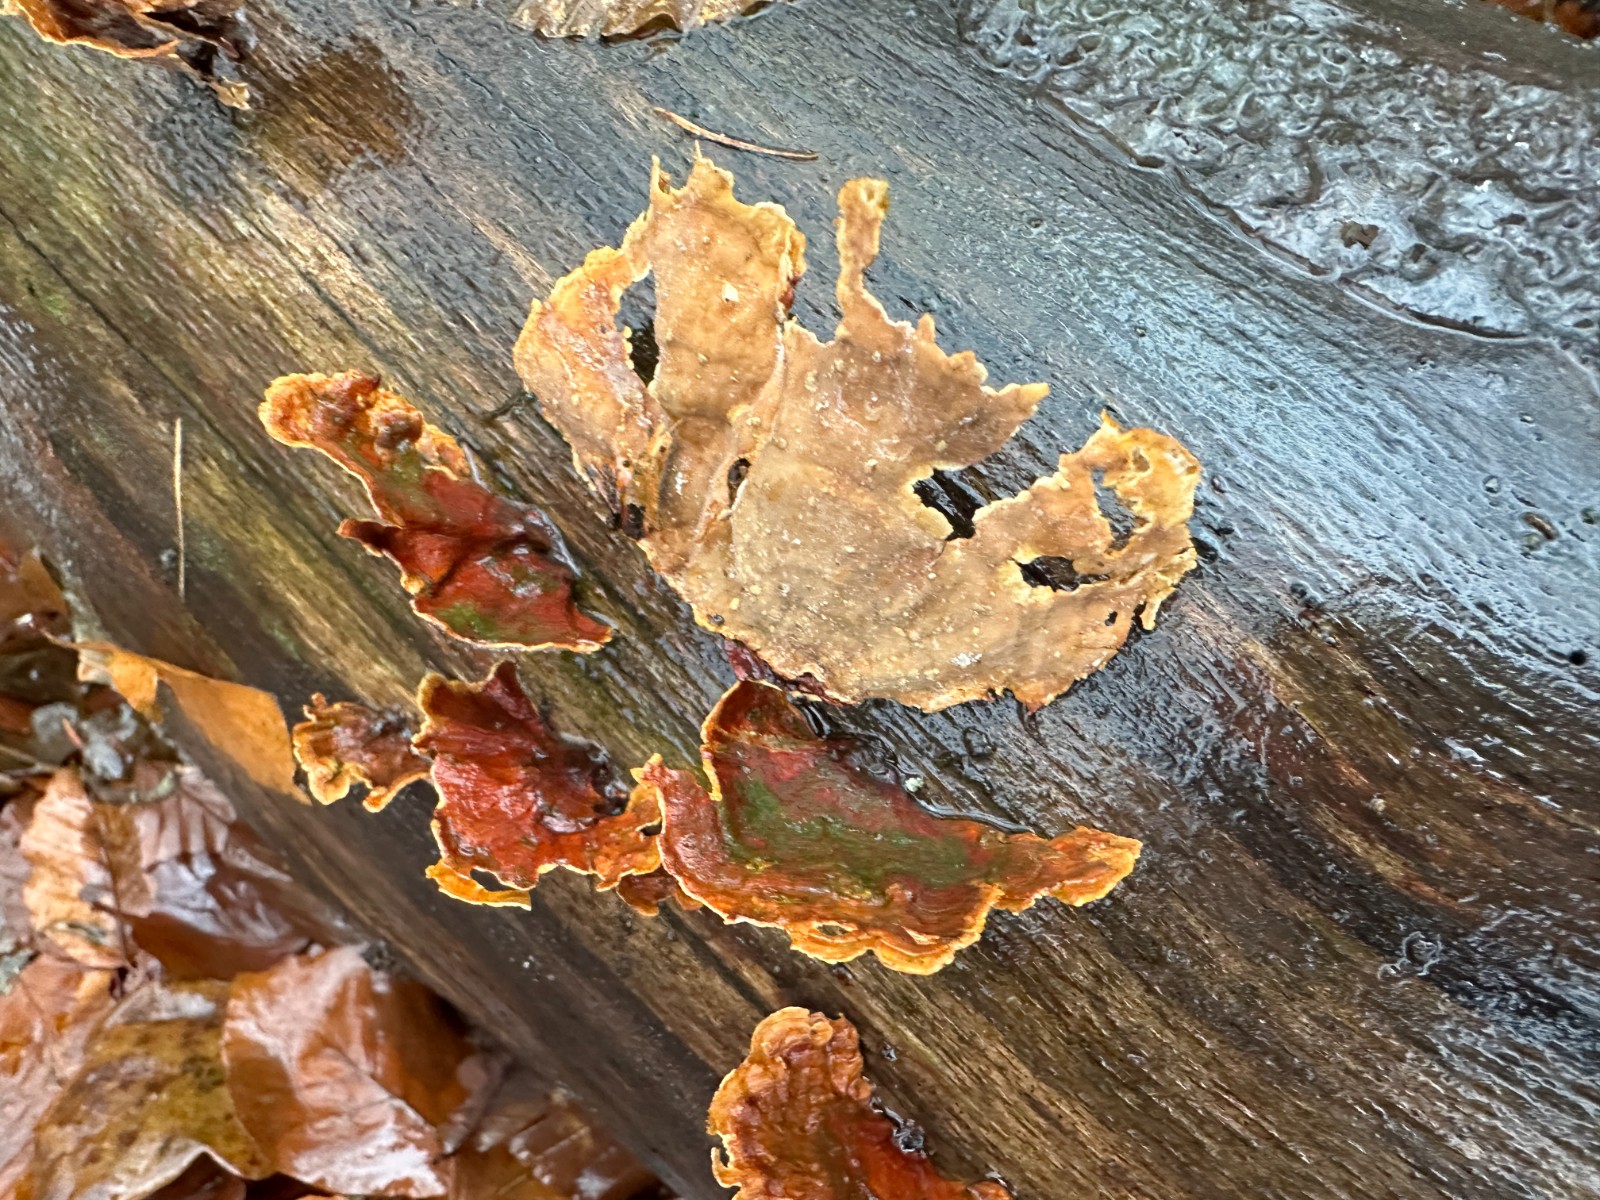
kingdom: Fungi
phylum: Basidiomycota
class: Agaricomycetes
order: Russulales
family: Stereaceae
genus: Stereum
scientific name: Stereum subtomentosum
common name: smuk lædersvamp
